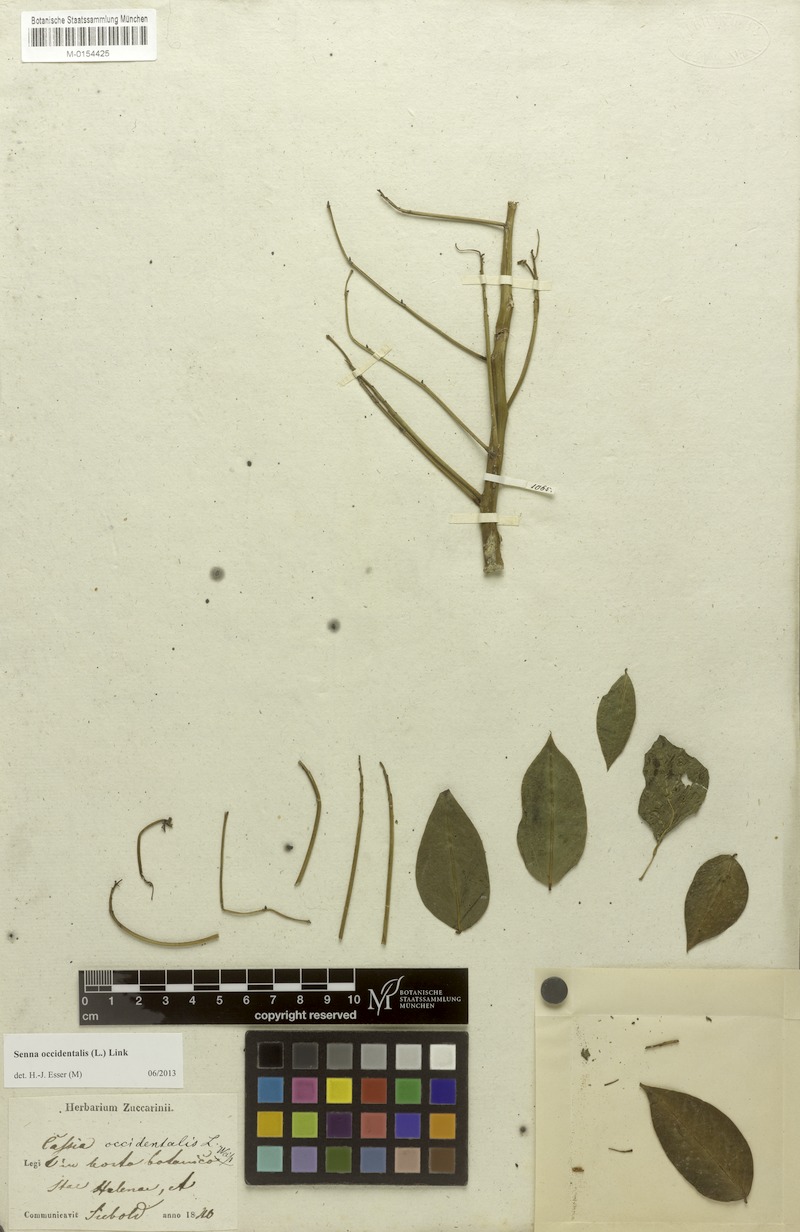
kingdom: Plantae
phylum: Tracheophyta
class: Magnoliopsida
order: Fabales
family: Fabaceae
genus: Senna
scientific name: Senna occidentalis
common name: Septicweed
